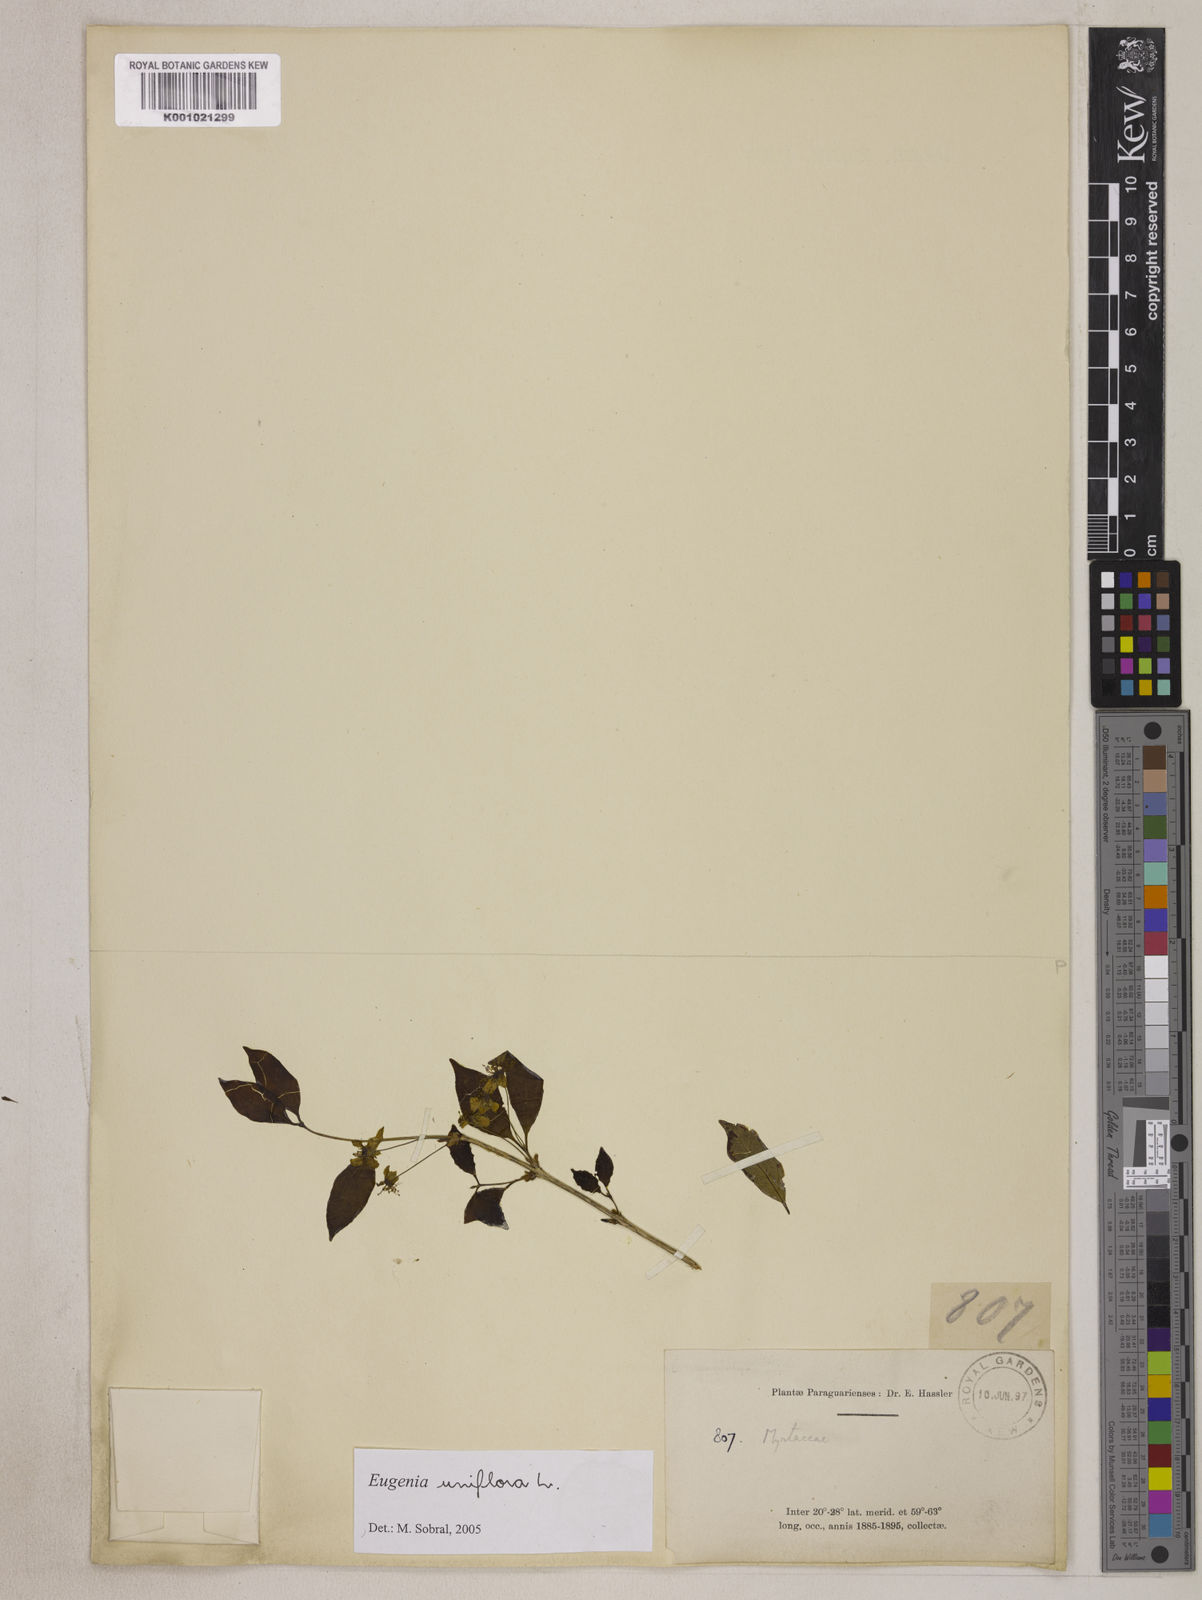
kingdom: Plantae
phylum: Tracheophyta
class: Magnoliopsida
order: Myrtales
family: Myrtaceae
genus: Eugenia
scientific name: Eugenia uniflora
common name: Surinam cherry
